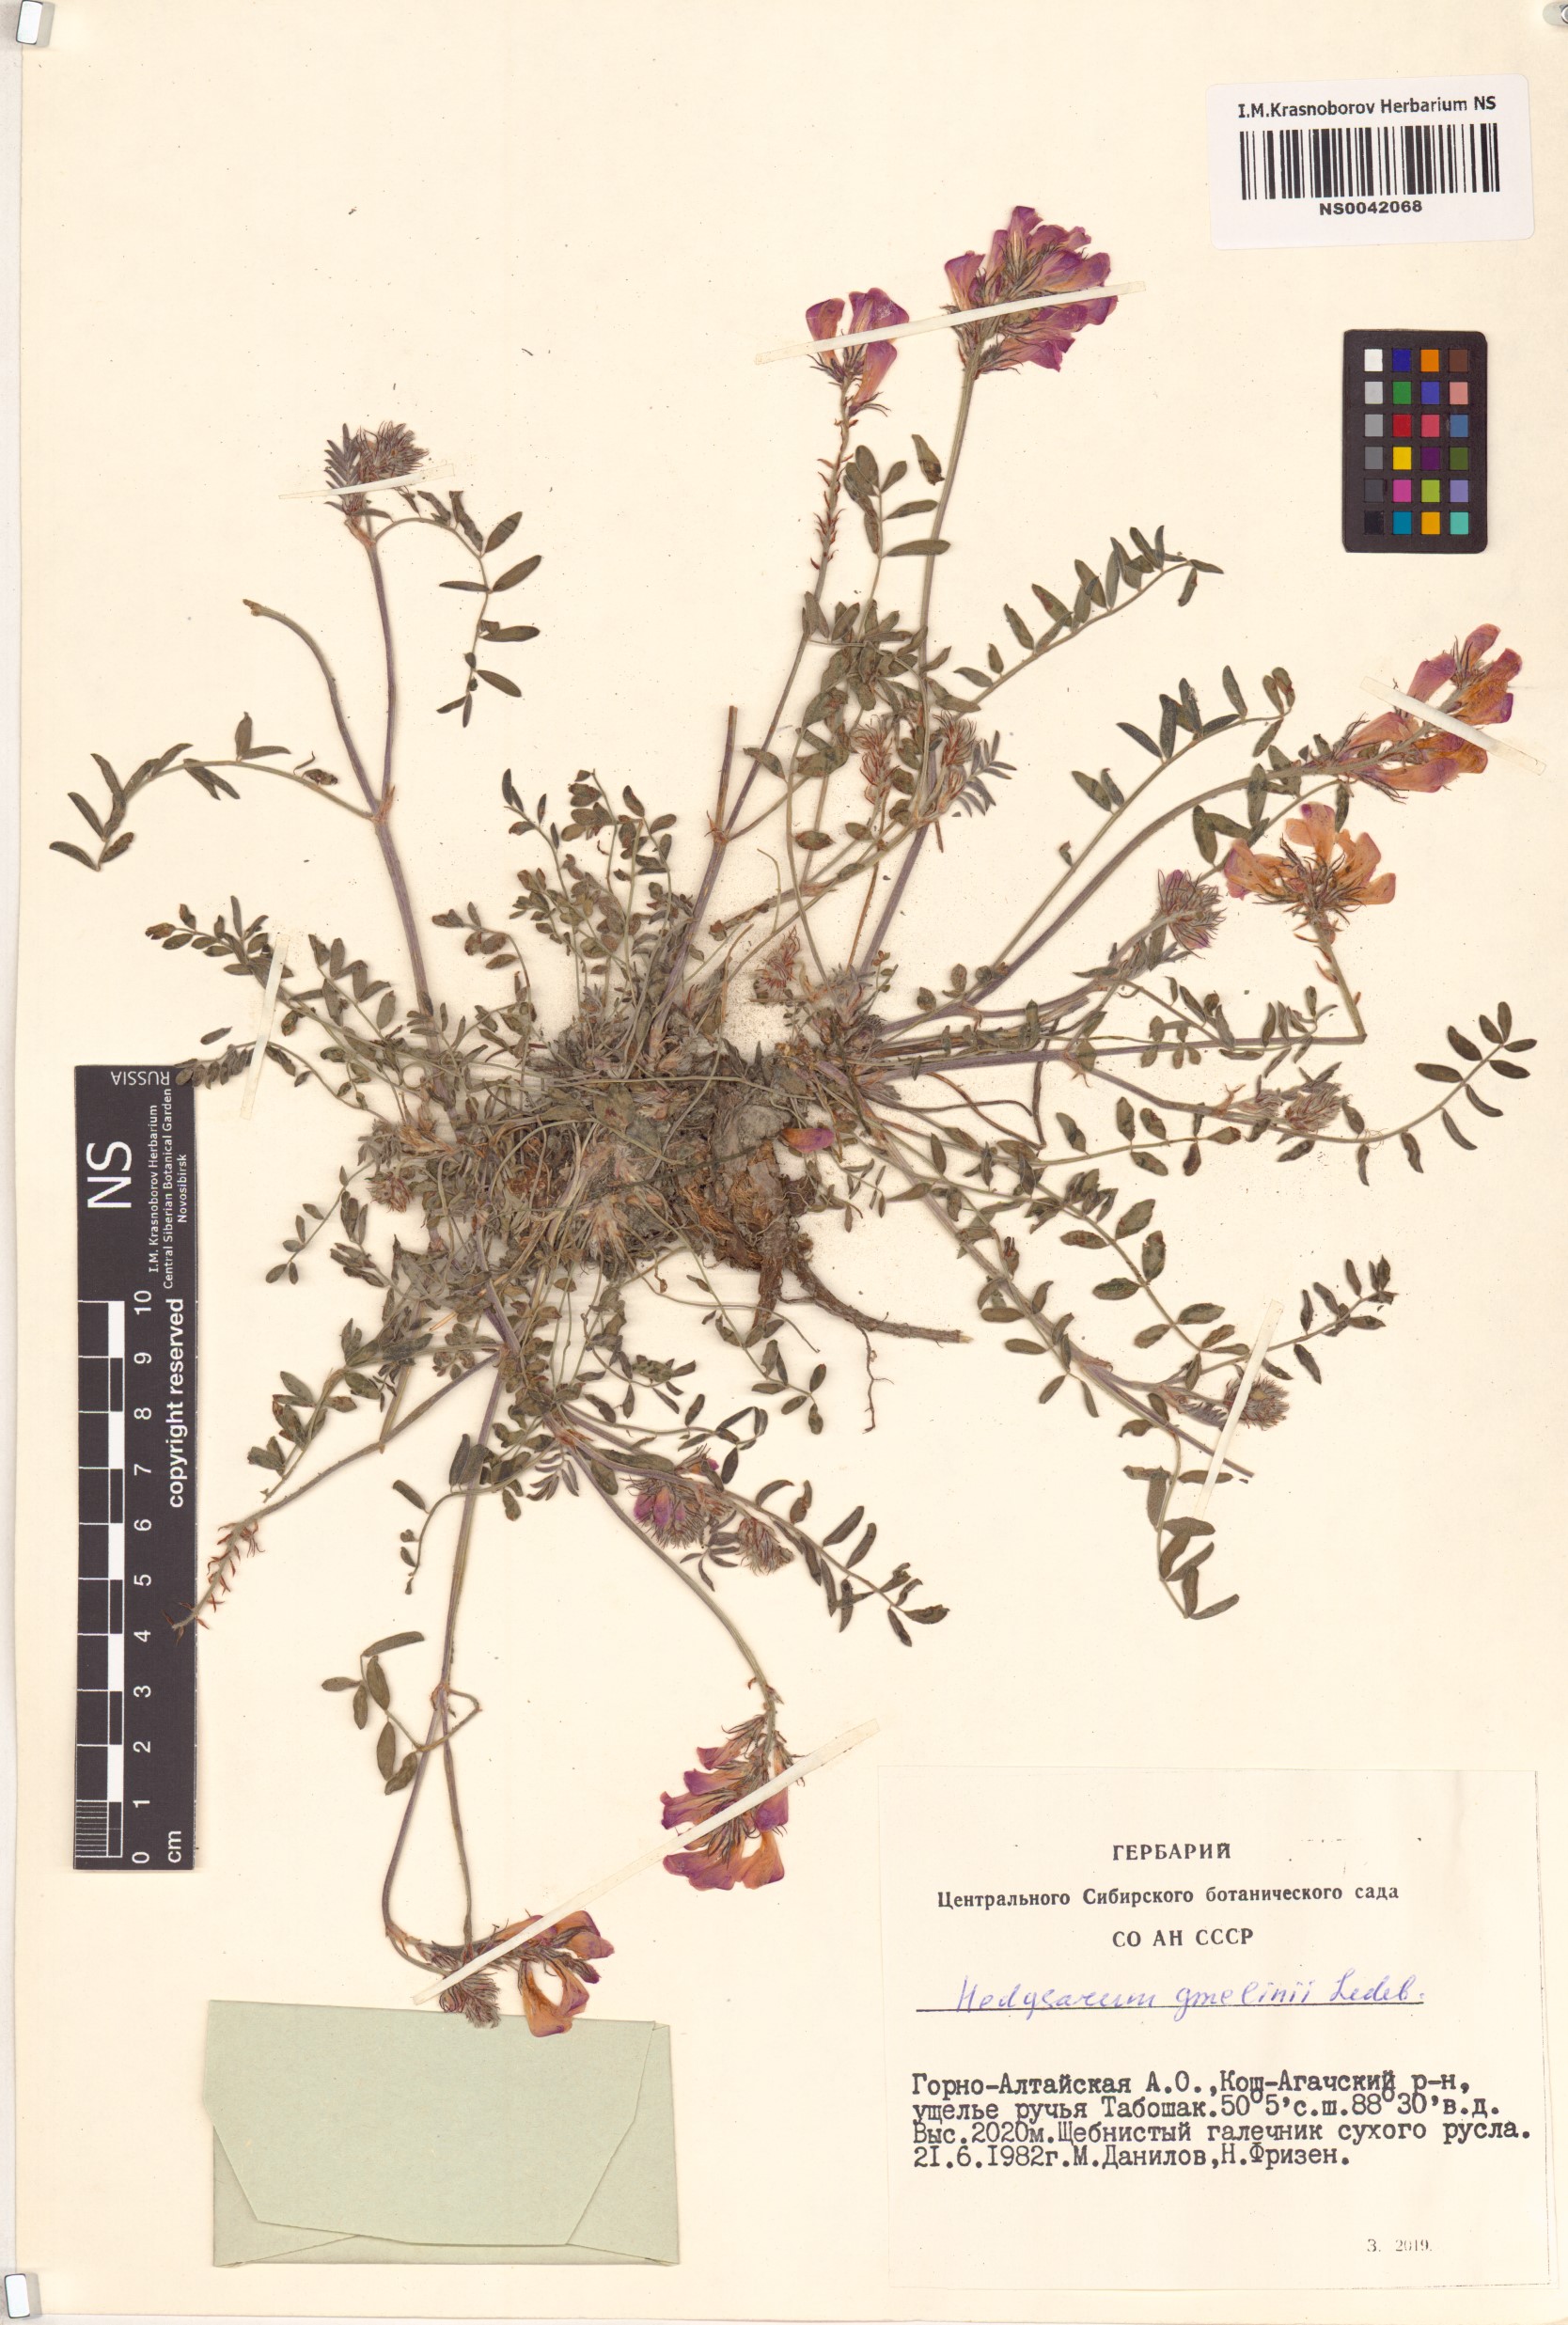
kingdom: Plantae
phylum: Tracheophyta
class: Magnoliopsida
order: Fabales
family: Fabaceae
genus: Hedysarum
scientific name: Hedysarum gmelinii
